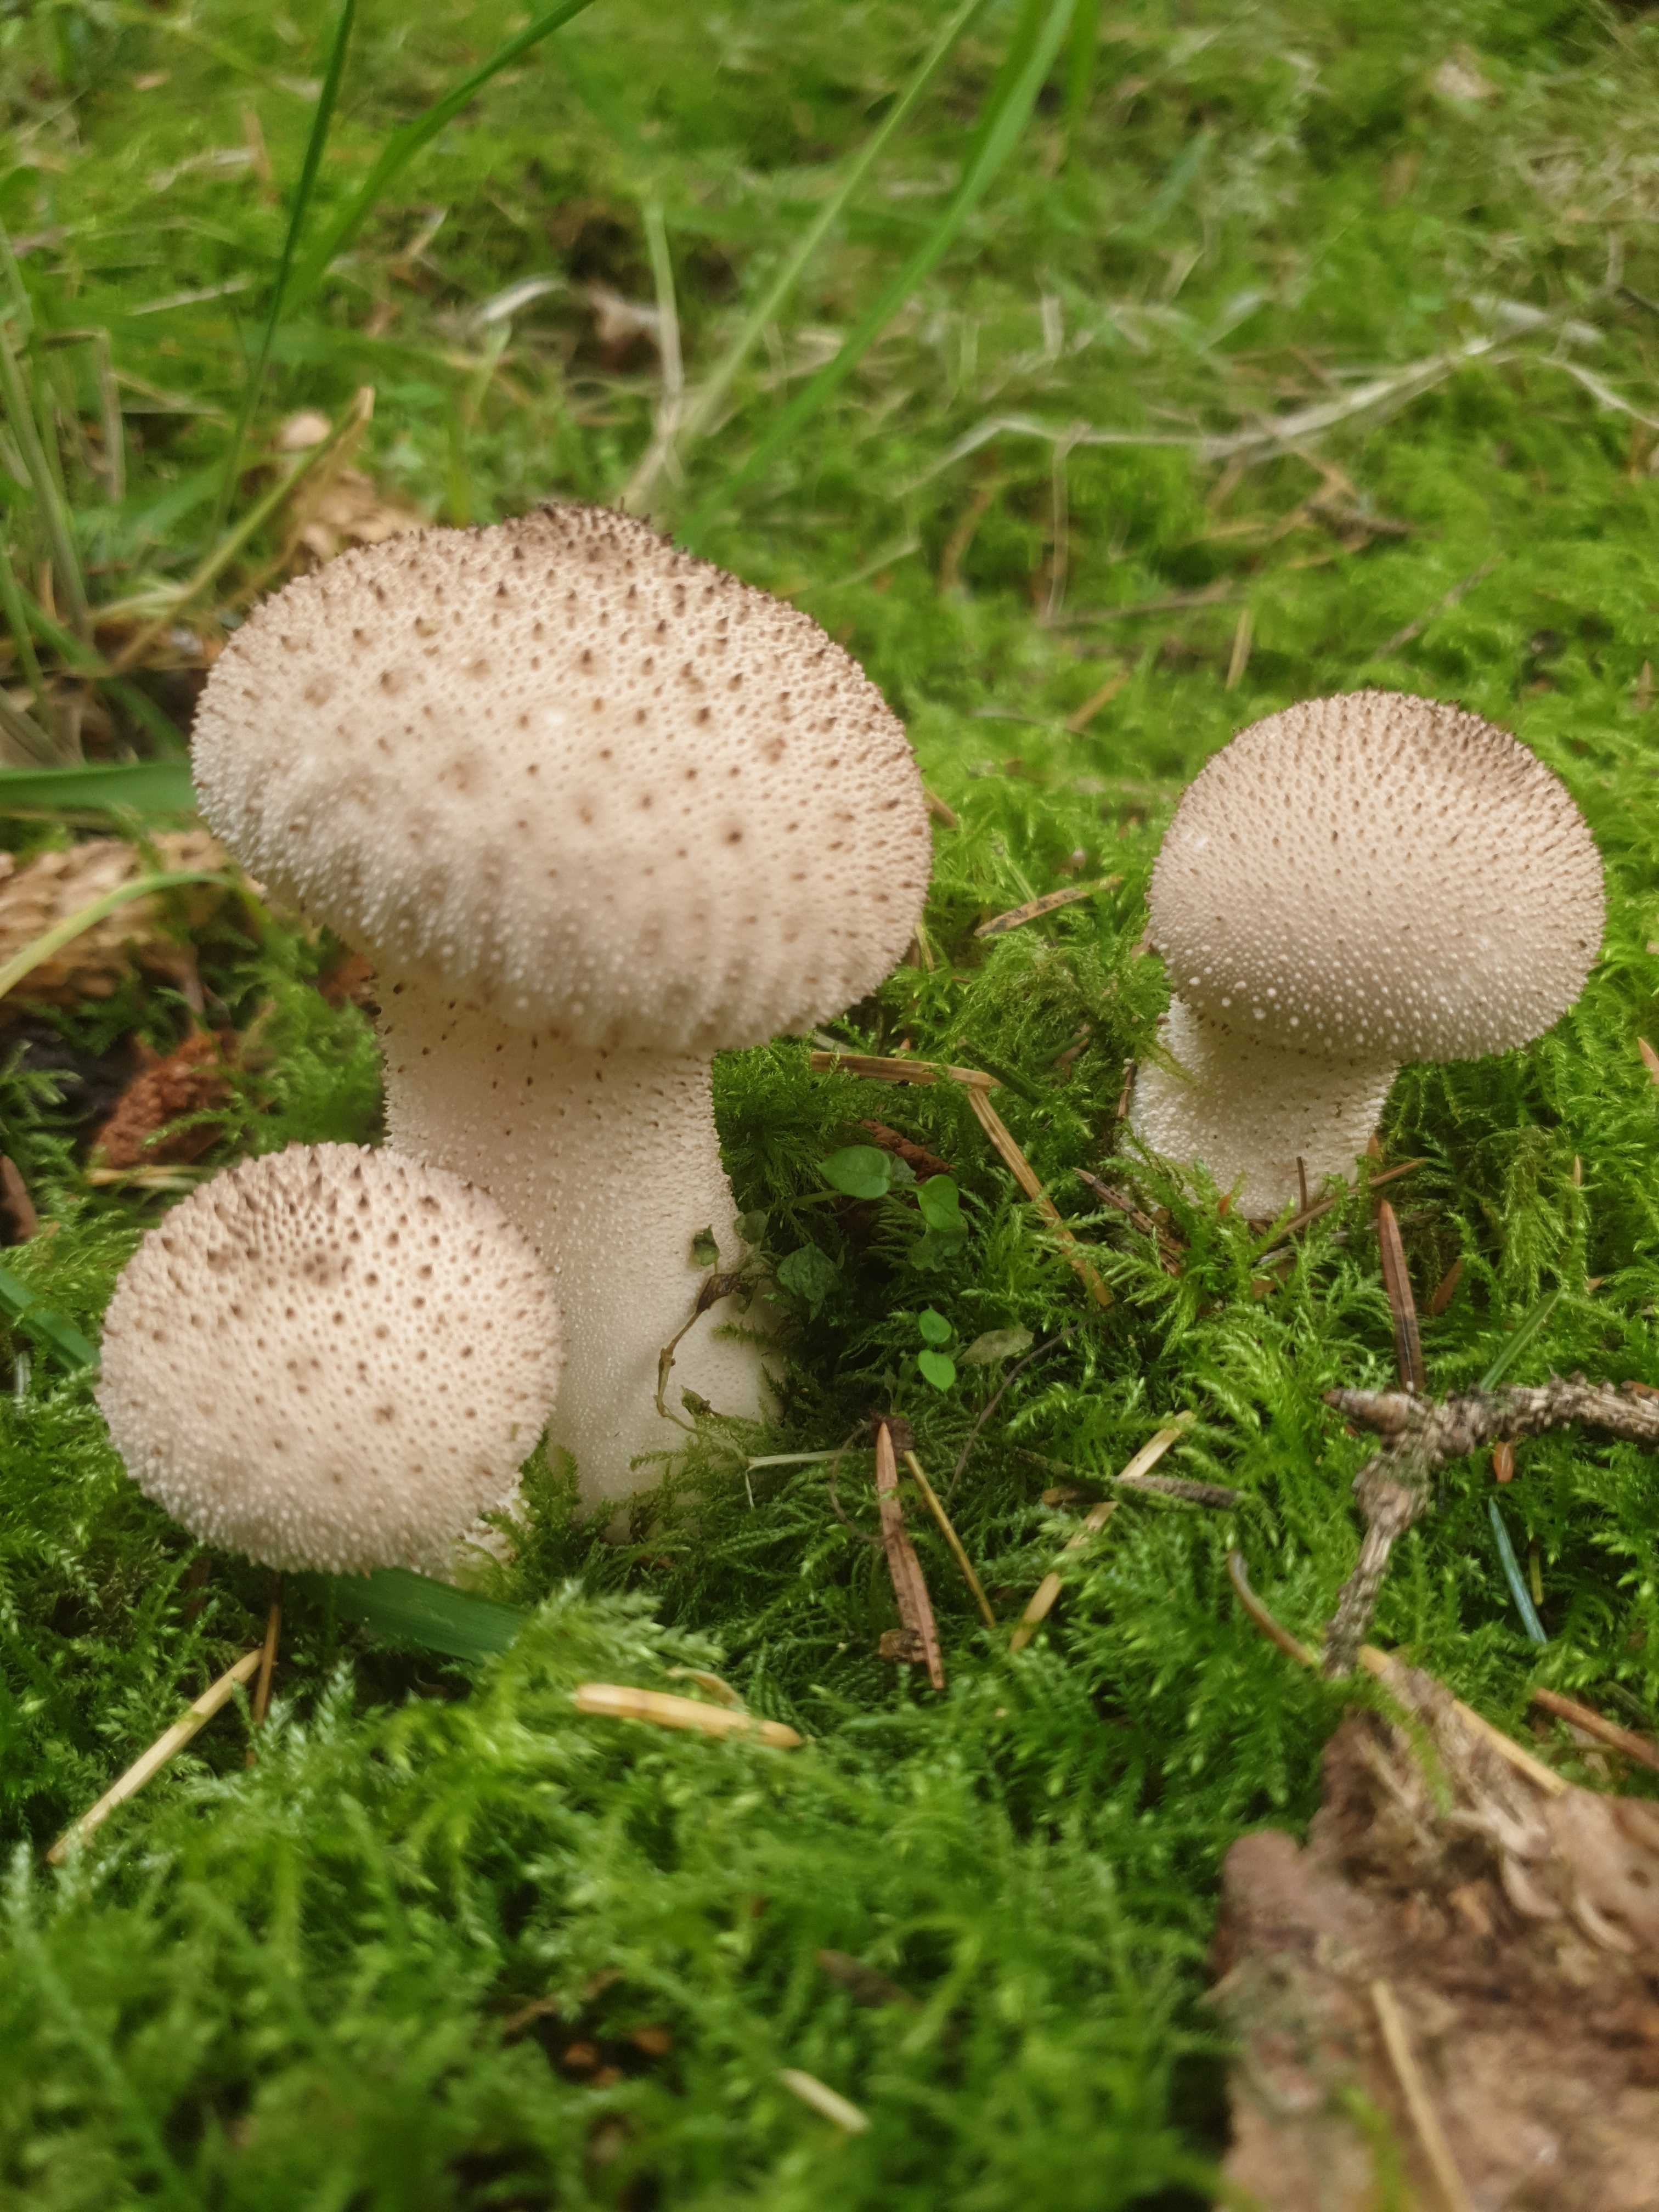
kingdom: Fungi
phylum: Basidiomycota
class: Agaricomycetes
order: Agaricales
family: Lycoperdaceae
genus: Lycoperdon
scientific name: Lycoperdon perlatum
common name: krystal-støvbold
